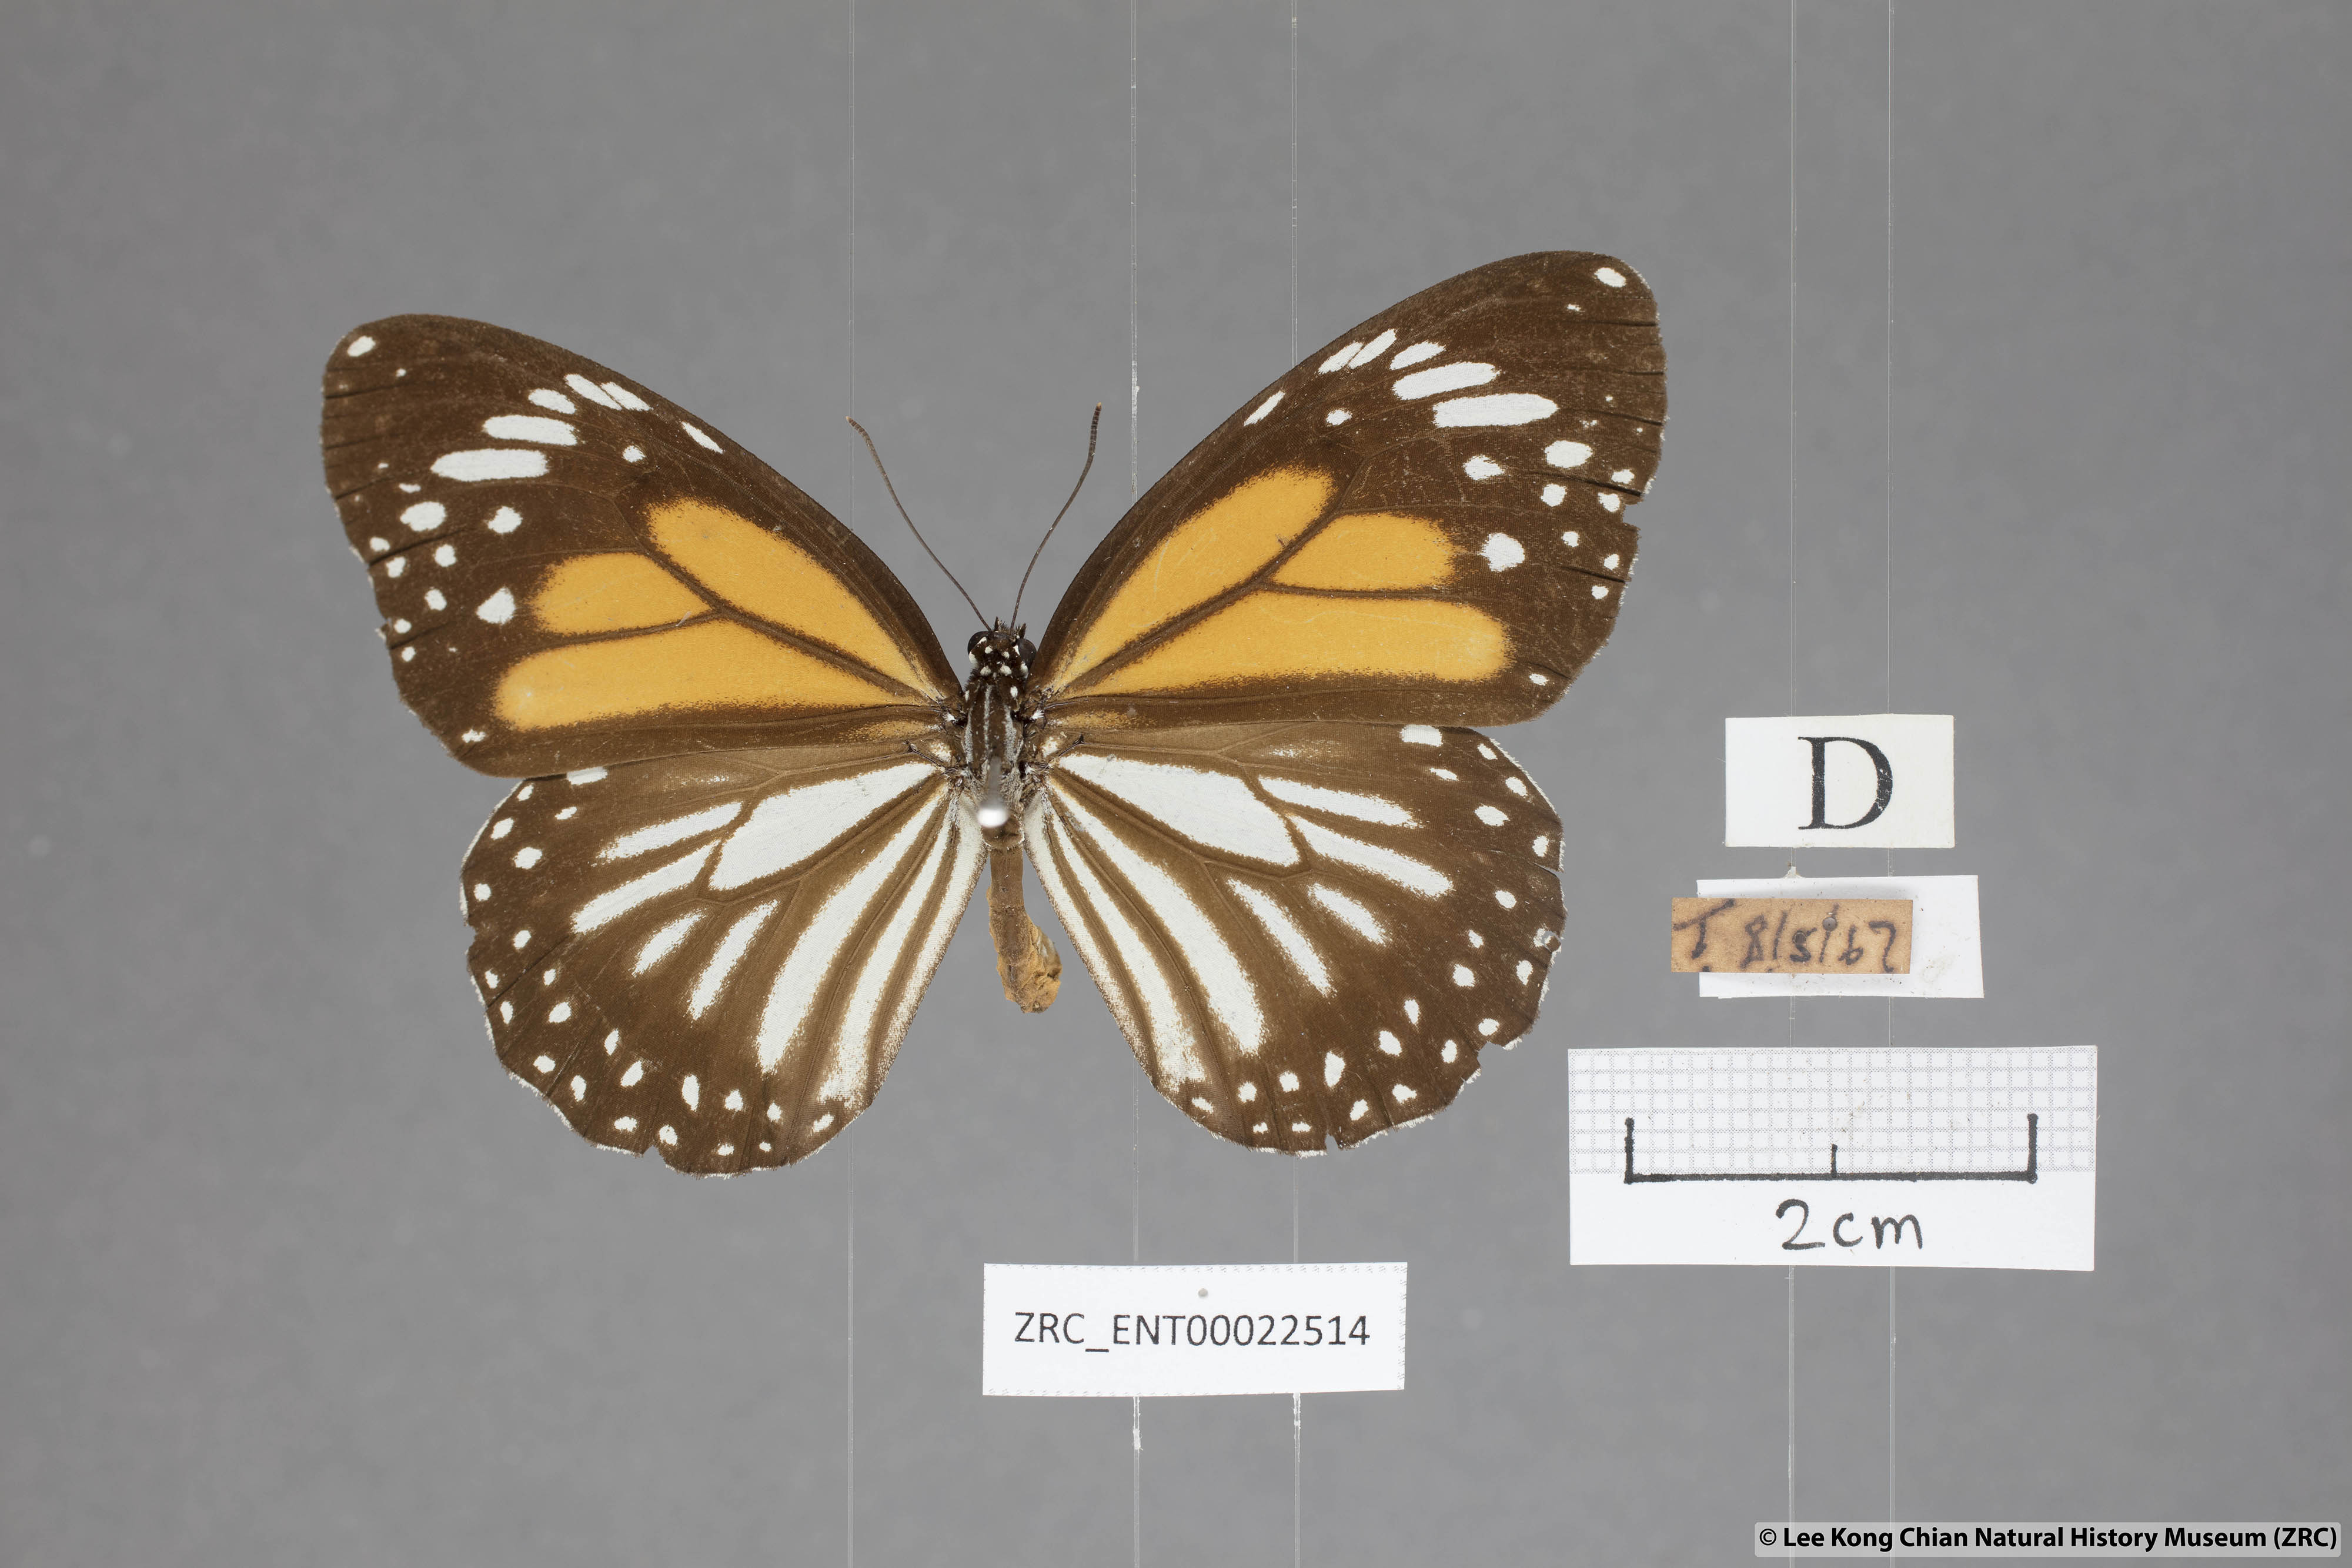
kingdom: Animalia
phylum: Arthropoda
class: Insecta
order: Lepidoptera
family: Nymphalidae
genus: Danaus
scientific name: Danaus melanippus
